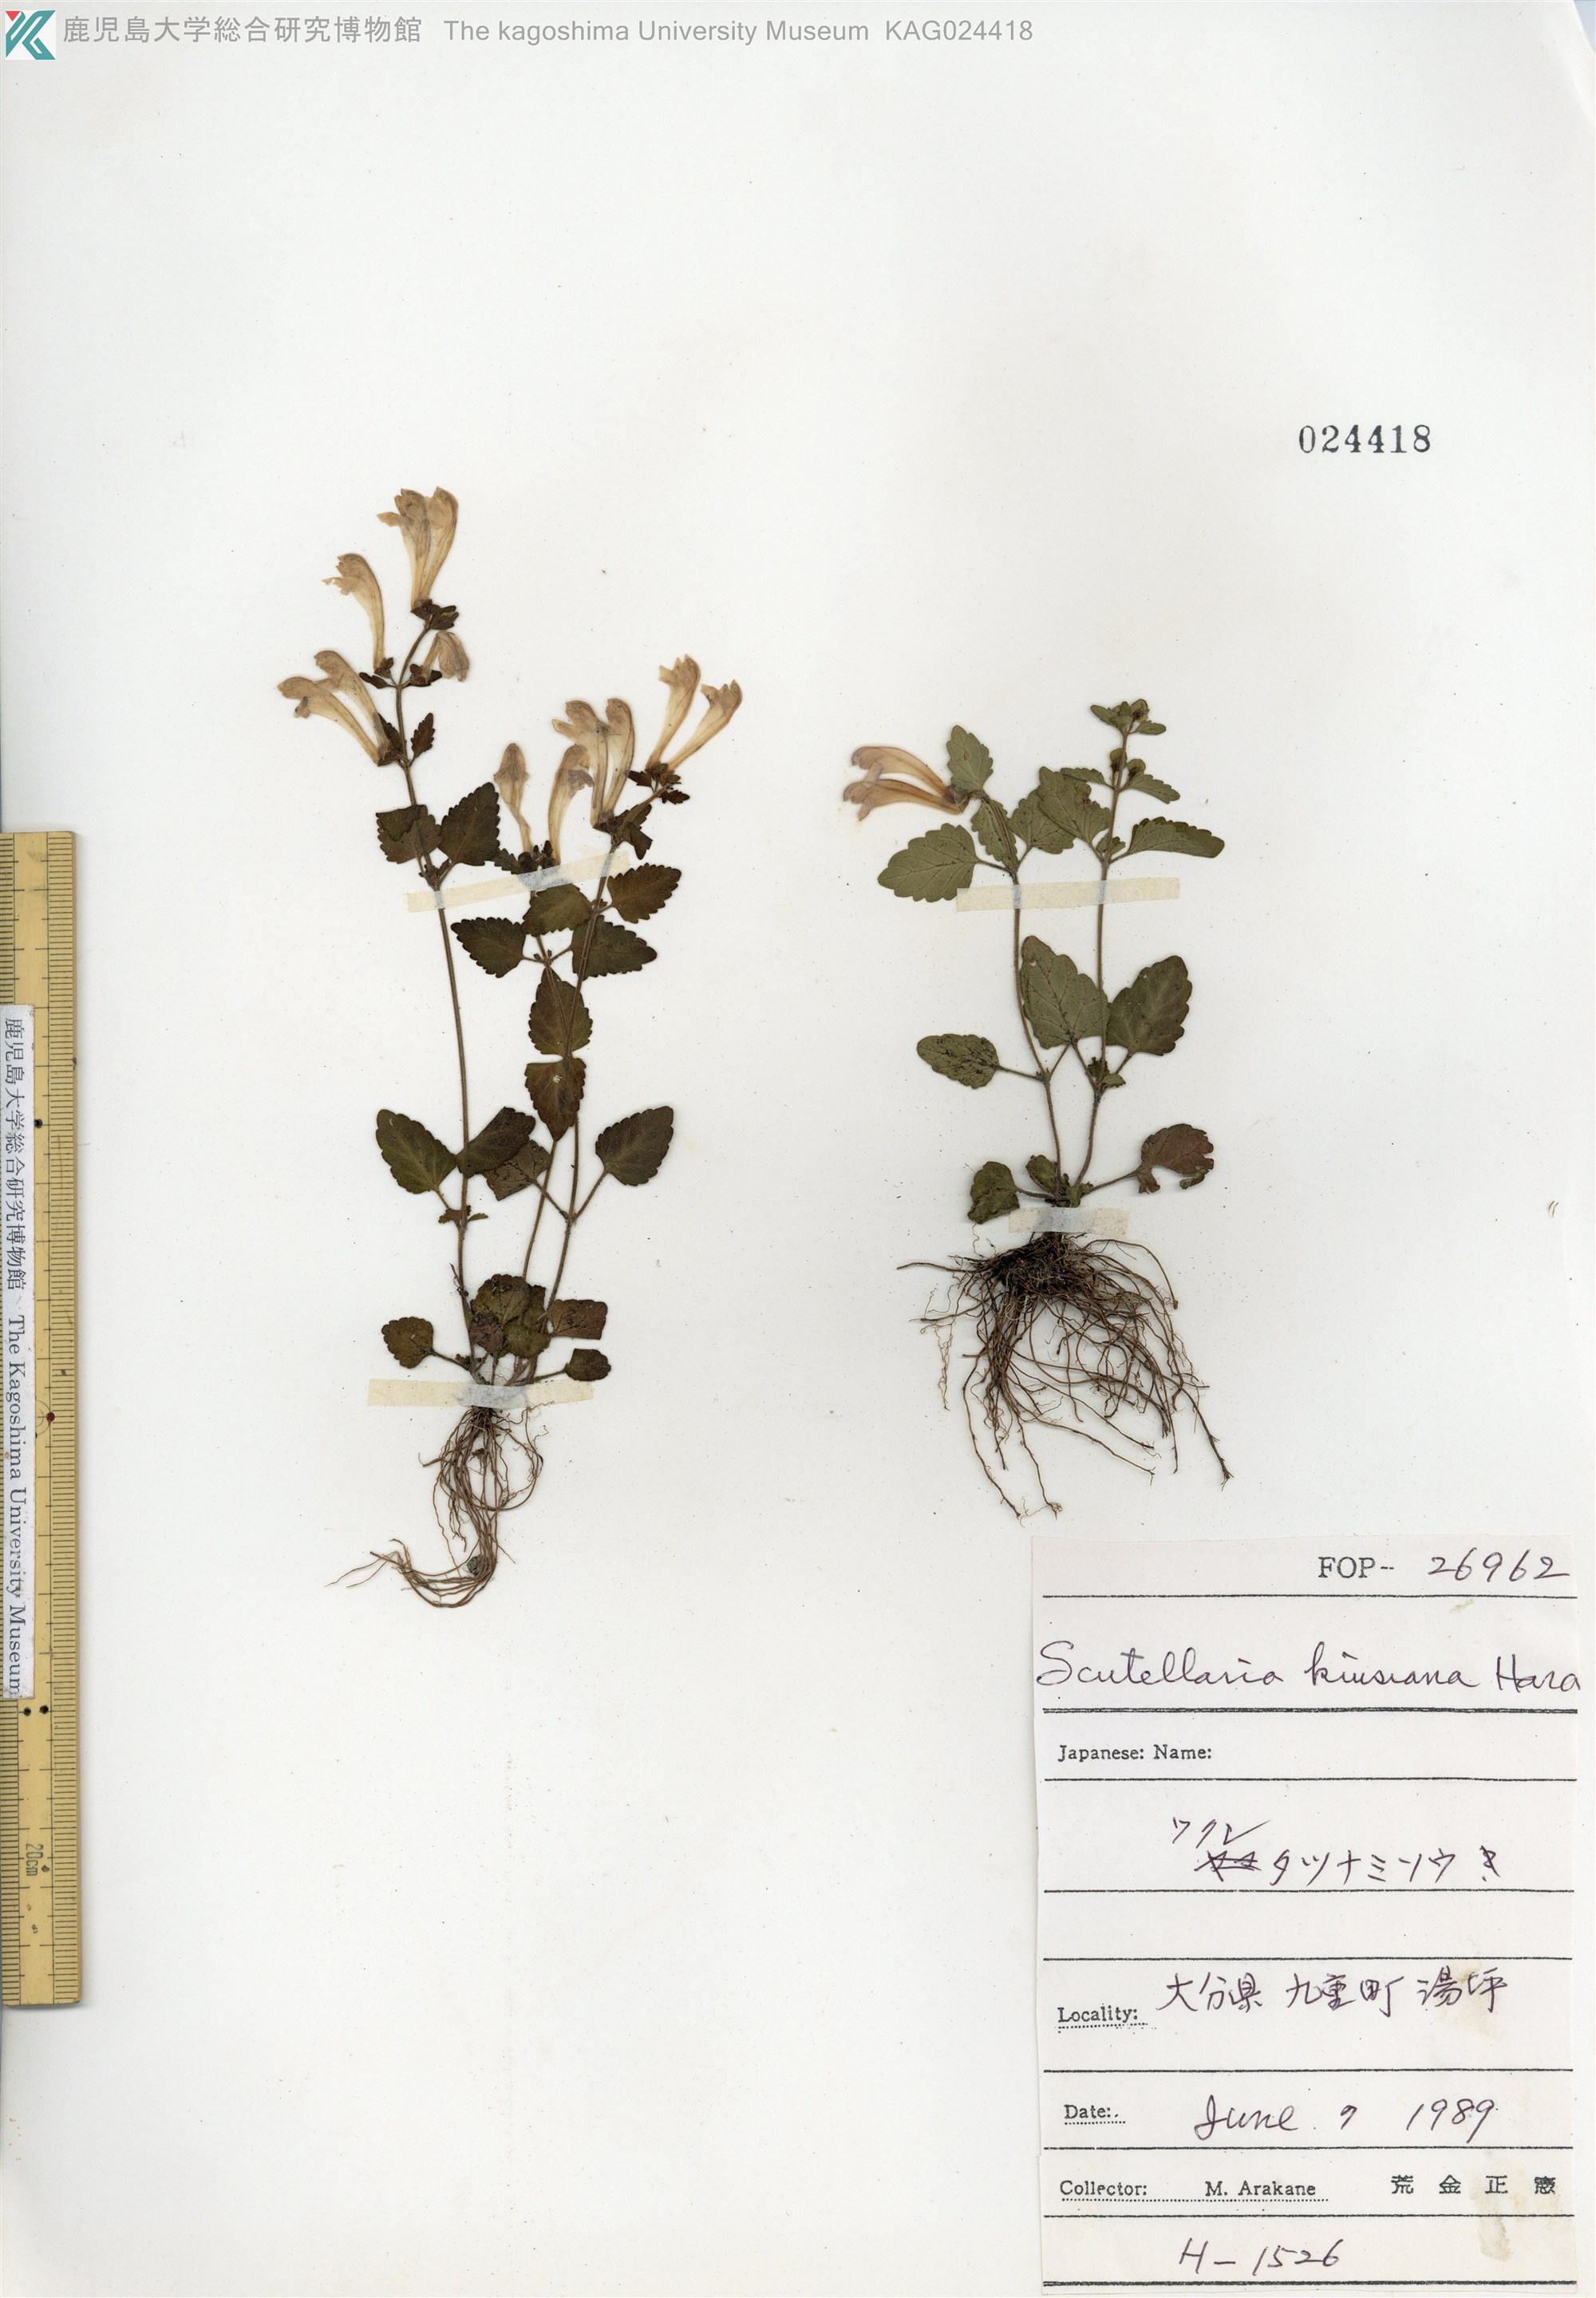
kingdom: Plantae
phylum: Tracheophyta
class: Magnoliopsida
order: Lamiales
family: Lamiaceae
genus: Scutellaria
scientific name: Scutellaria kiusiana
